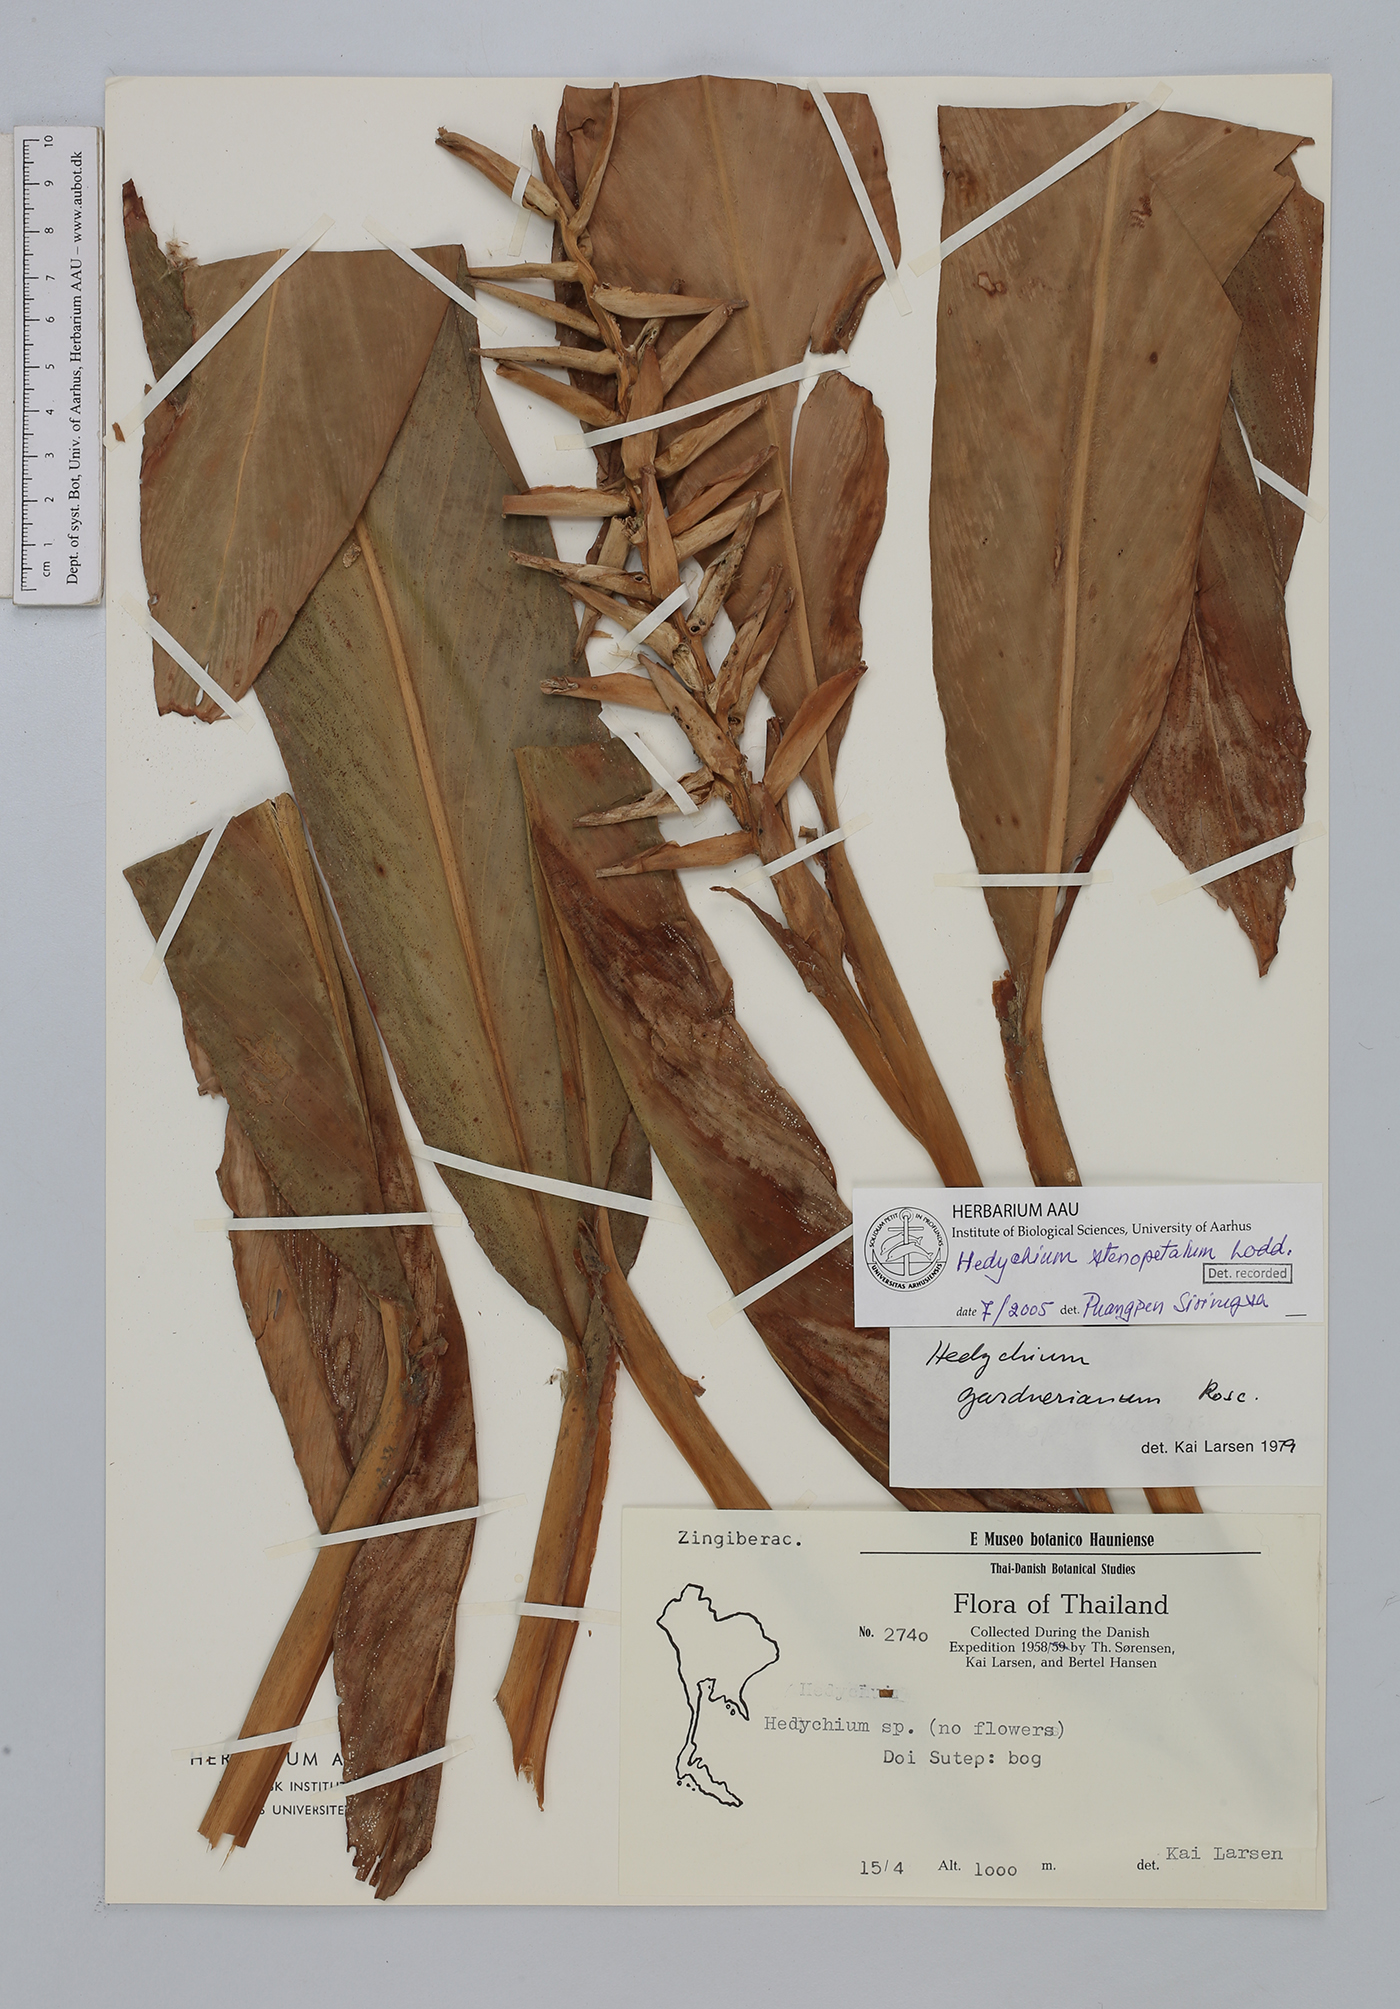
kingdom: Plantae
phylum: Tracheophyta
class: Liliopsida
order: Zingiberales
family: Zingiberaceae
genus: Hedychium
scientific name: Hedychium stenopetalum
